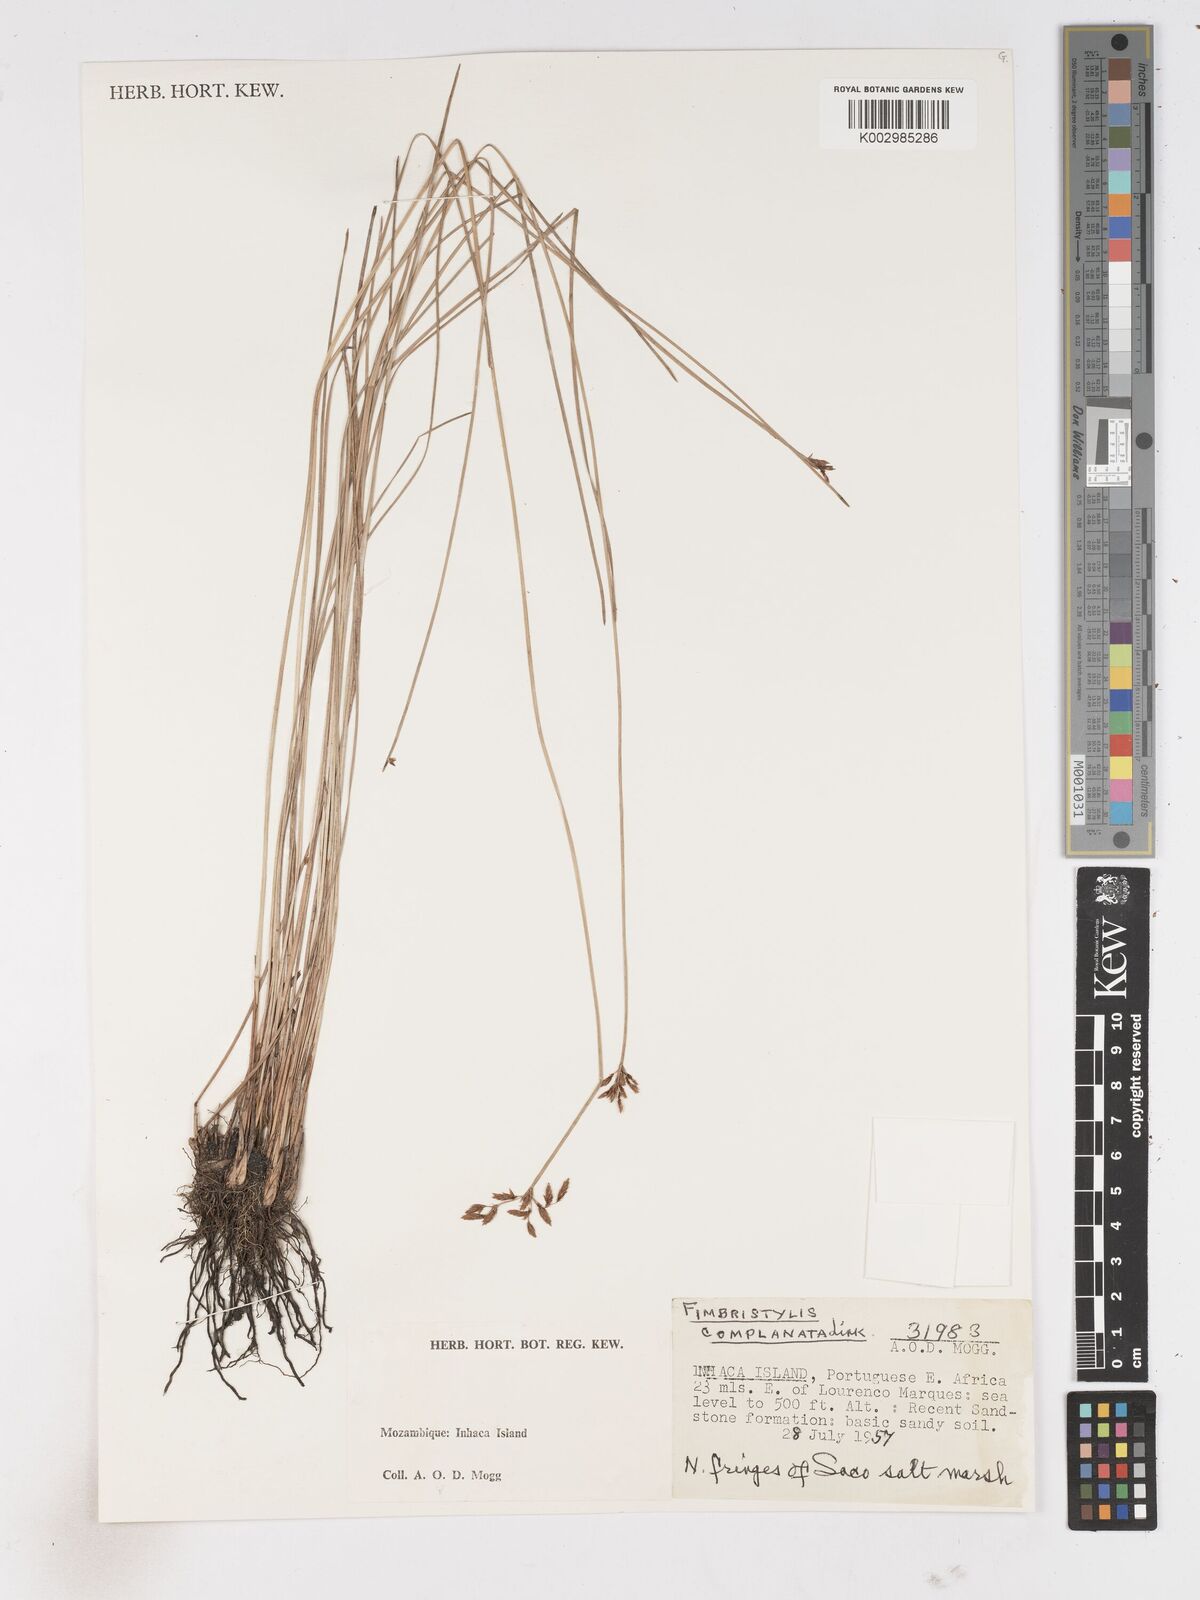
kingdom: Plantae
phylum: Tracheophyta
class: Liliopsida
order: Poales
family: Cyperaceae
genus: Fimbristylis
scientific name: Fimbristylis complanata
